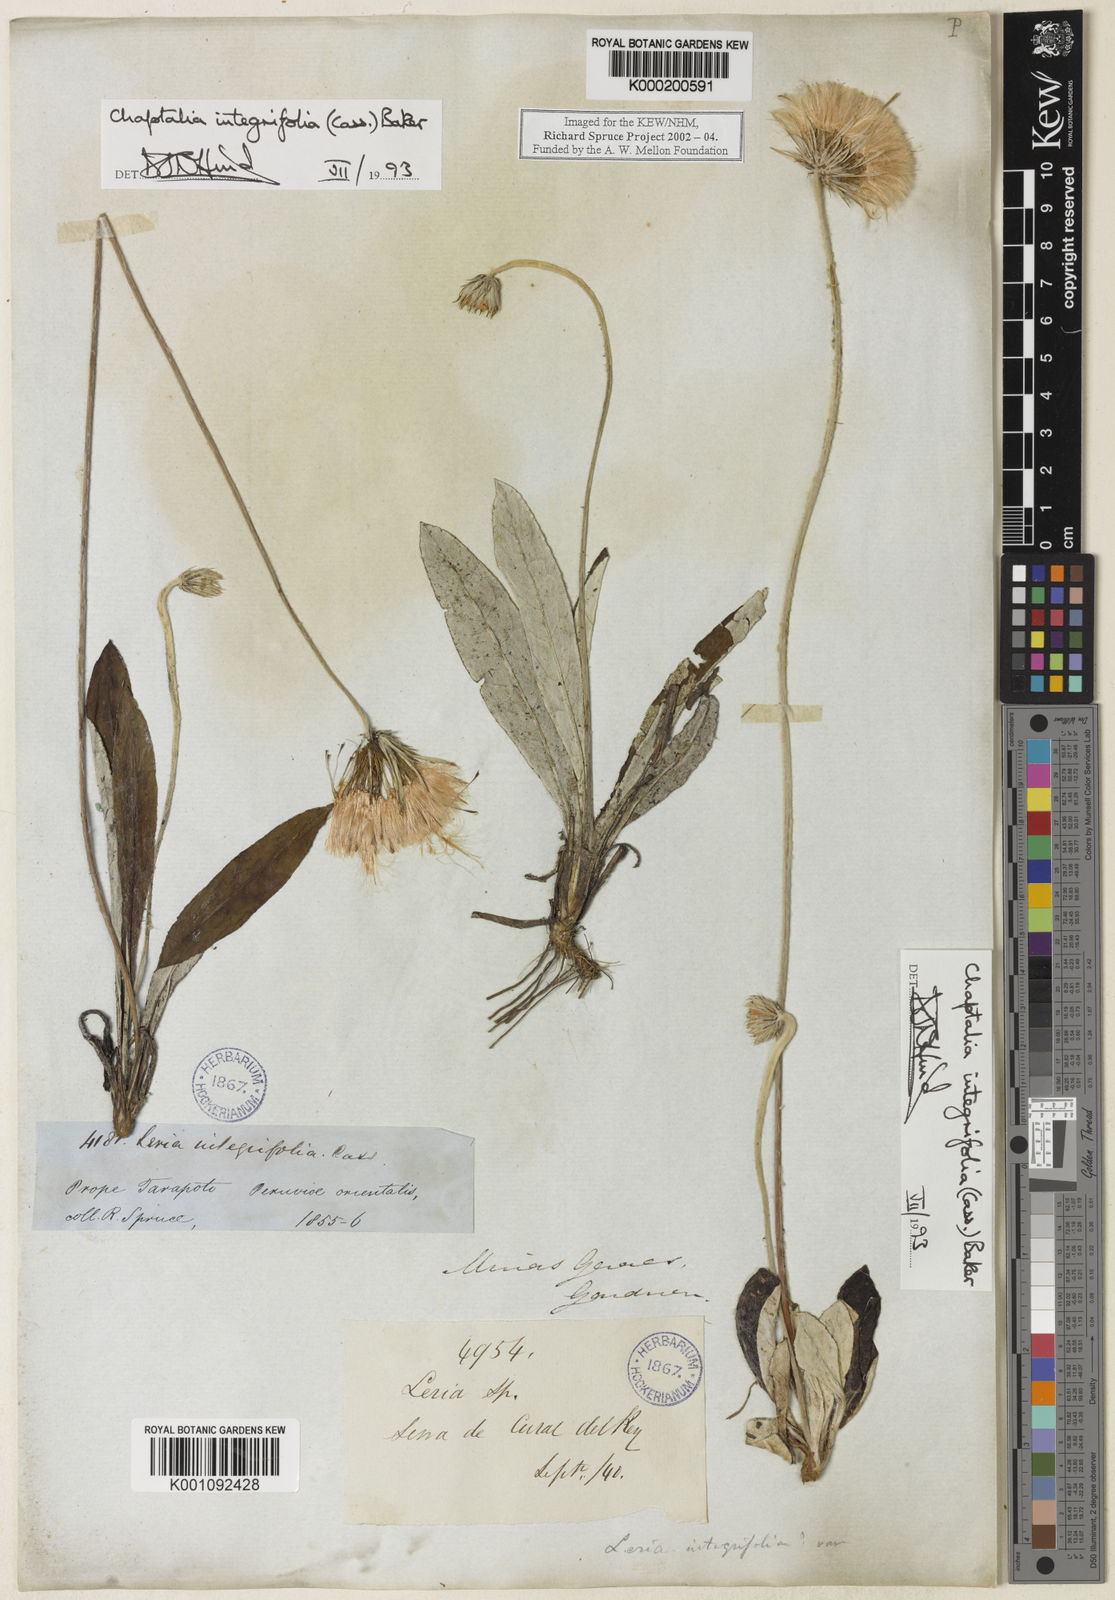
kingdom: Plantae
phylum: Tracheophyta
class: Magnoliopsida
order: Asterales
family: Asteraceae
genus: Chaptalia
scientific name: Chaptalia integerrima
